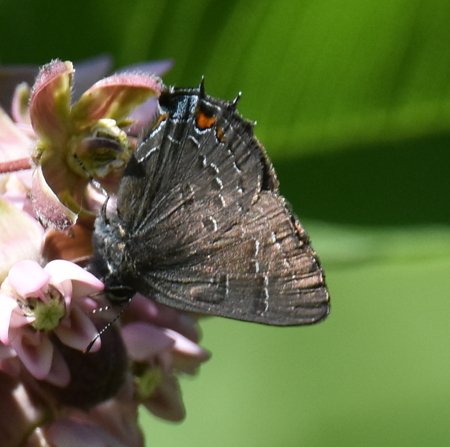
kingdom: Animalia
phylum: Arthropoda
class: Insecta
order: Lepidoptera
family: Lycaenidae
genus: Satyrium
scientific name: Satyrium calanus
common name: Banded Hairstreak
